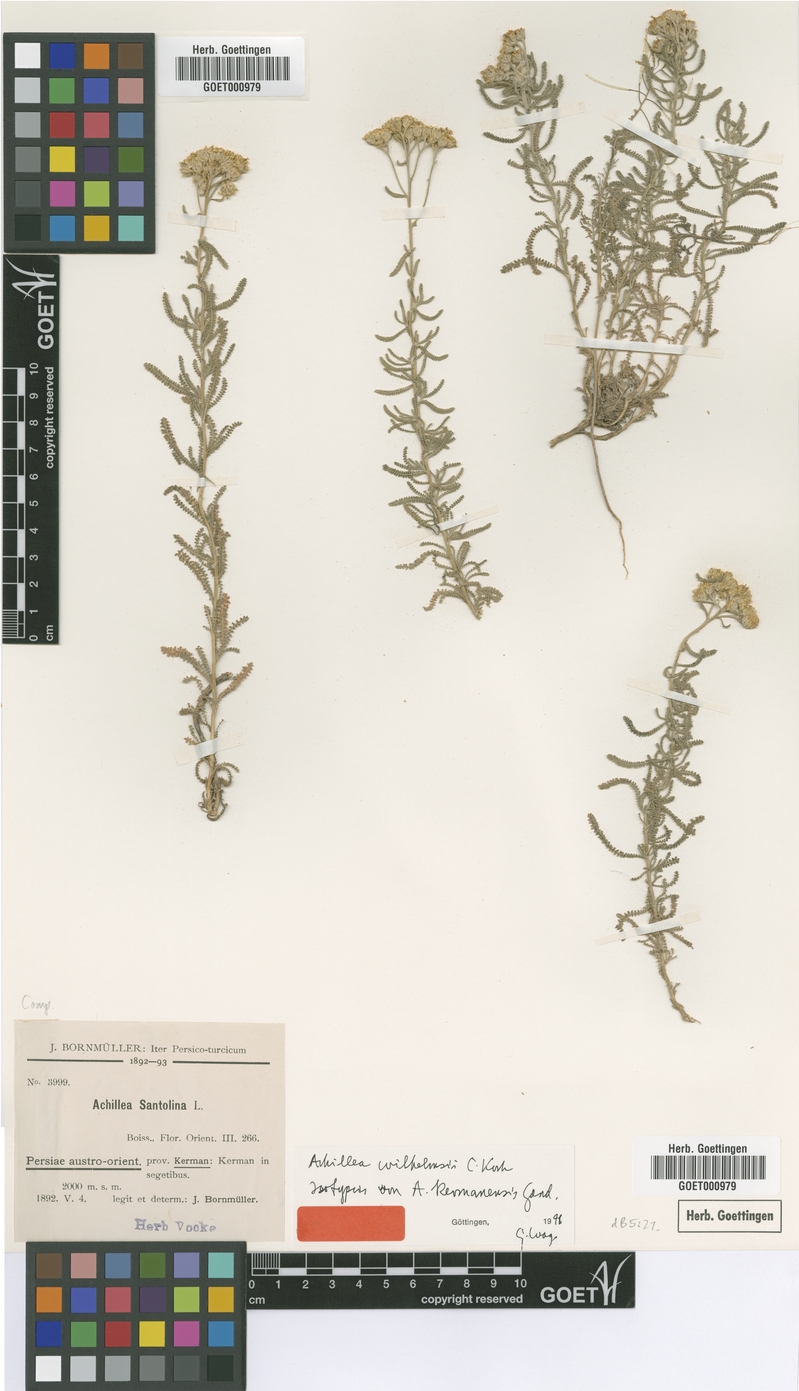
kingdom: Plantae
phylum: Tracheophyta
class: Magnoliopsida
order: Asterales
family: Asteraceae
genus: Achillea
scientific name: Achillea wilhelmsii
